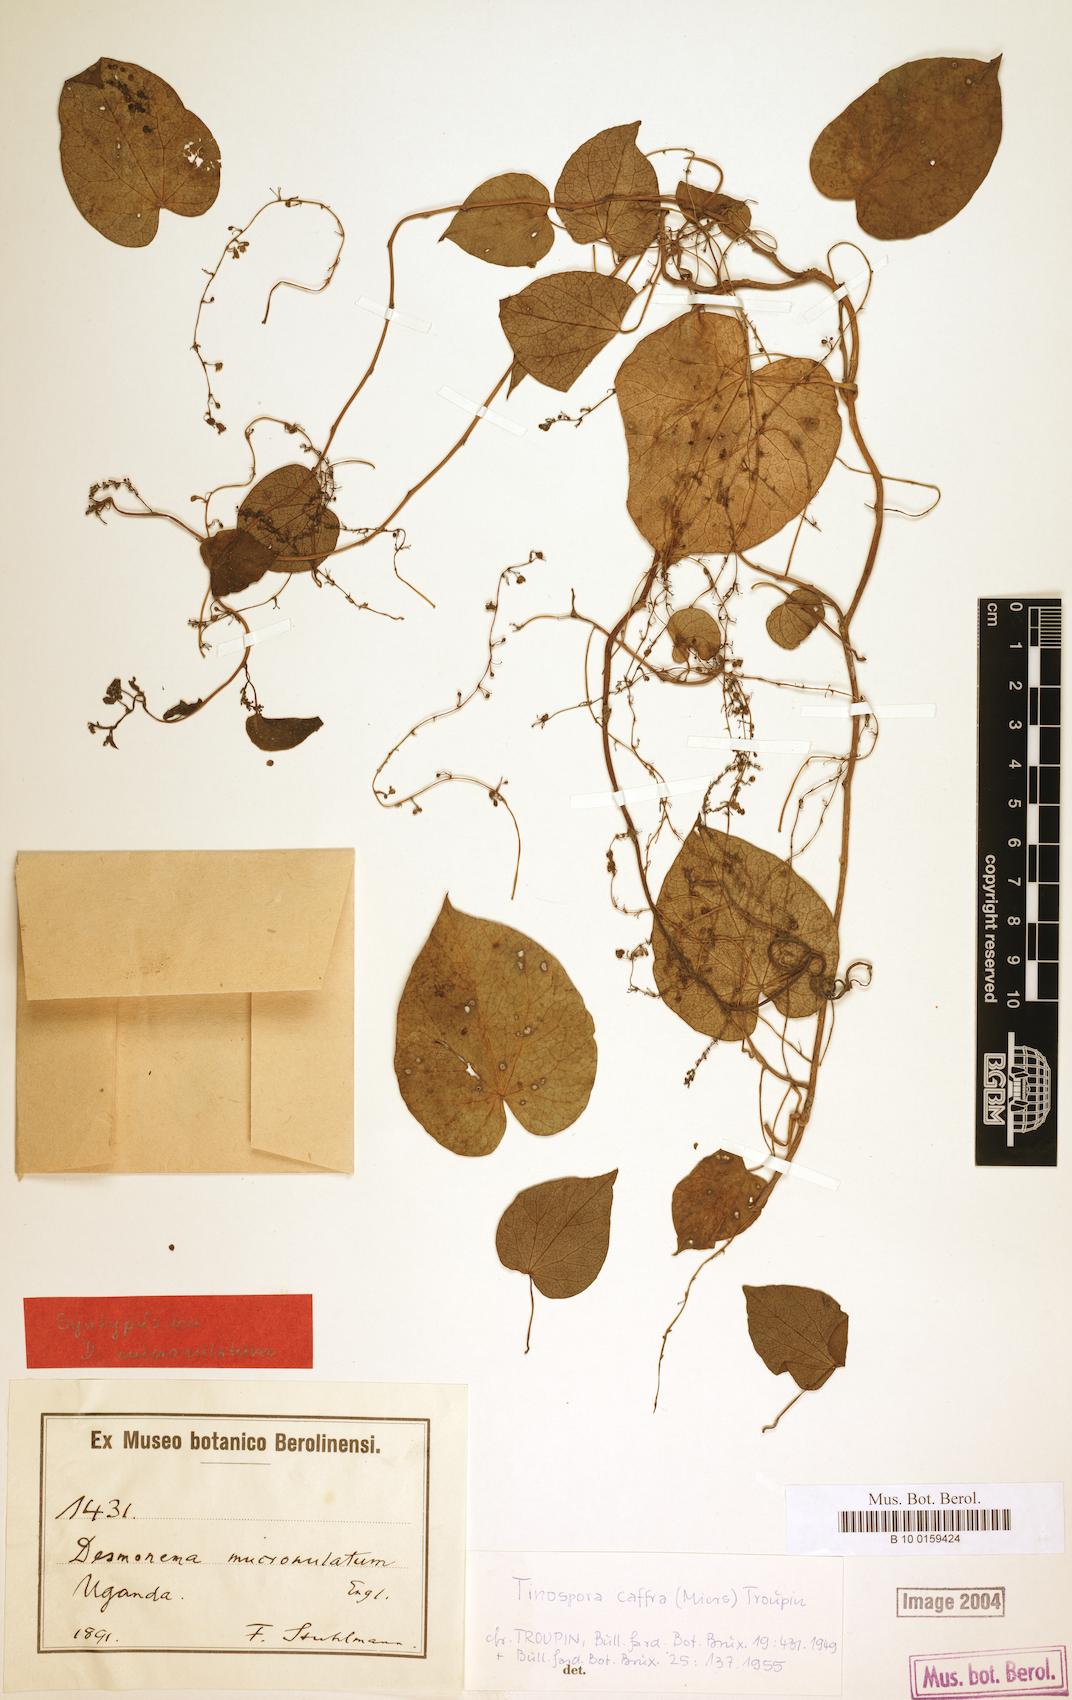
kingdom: Plantae
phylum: Tracheophyta
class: Magnoliopsida
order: Ranunculales
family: Menispermaceae
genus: Tinospora
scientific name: Tinospora caffra
